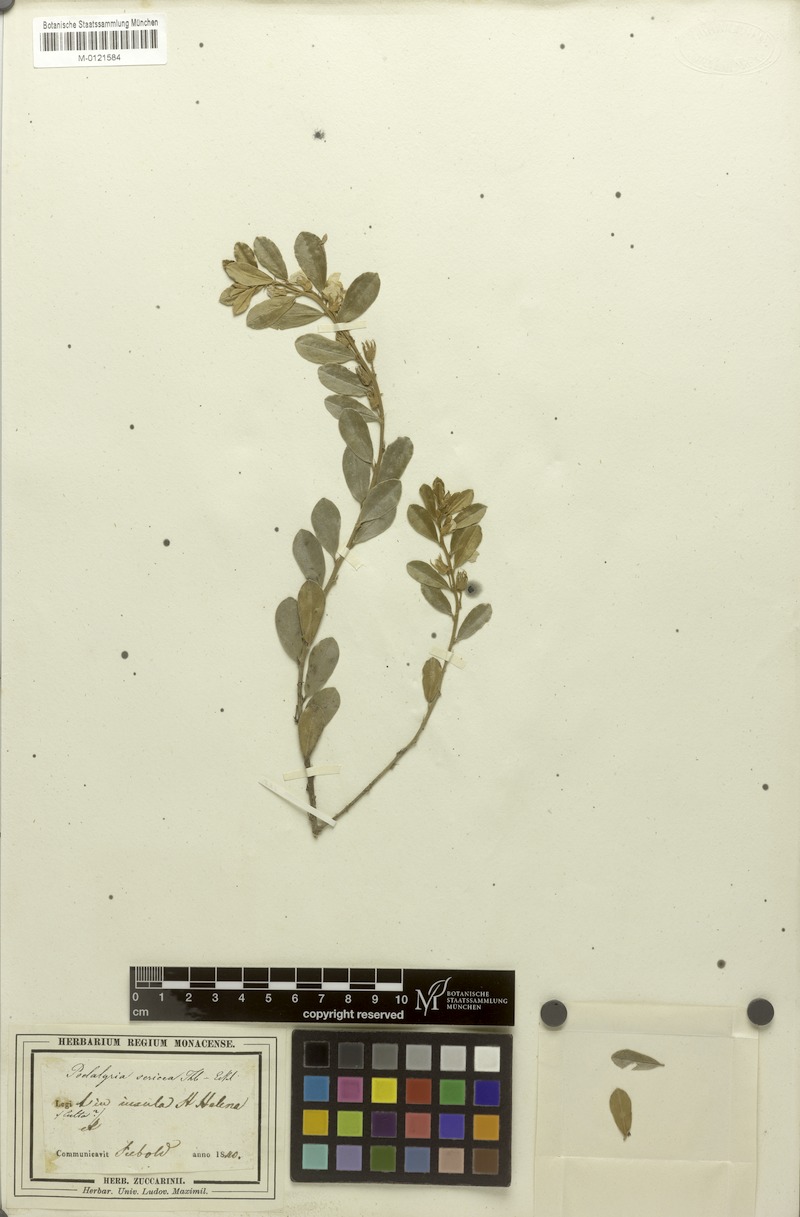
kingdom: Plantae
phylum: Tracheophyta
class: Magnoliopsida
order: Fabales
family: Fabaceae
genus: Podalyria
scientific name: Podalyria sericea
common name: Silver podalyria
